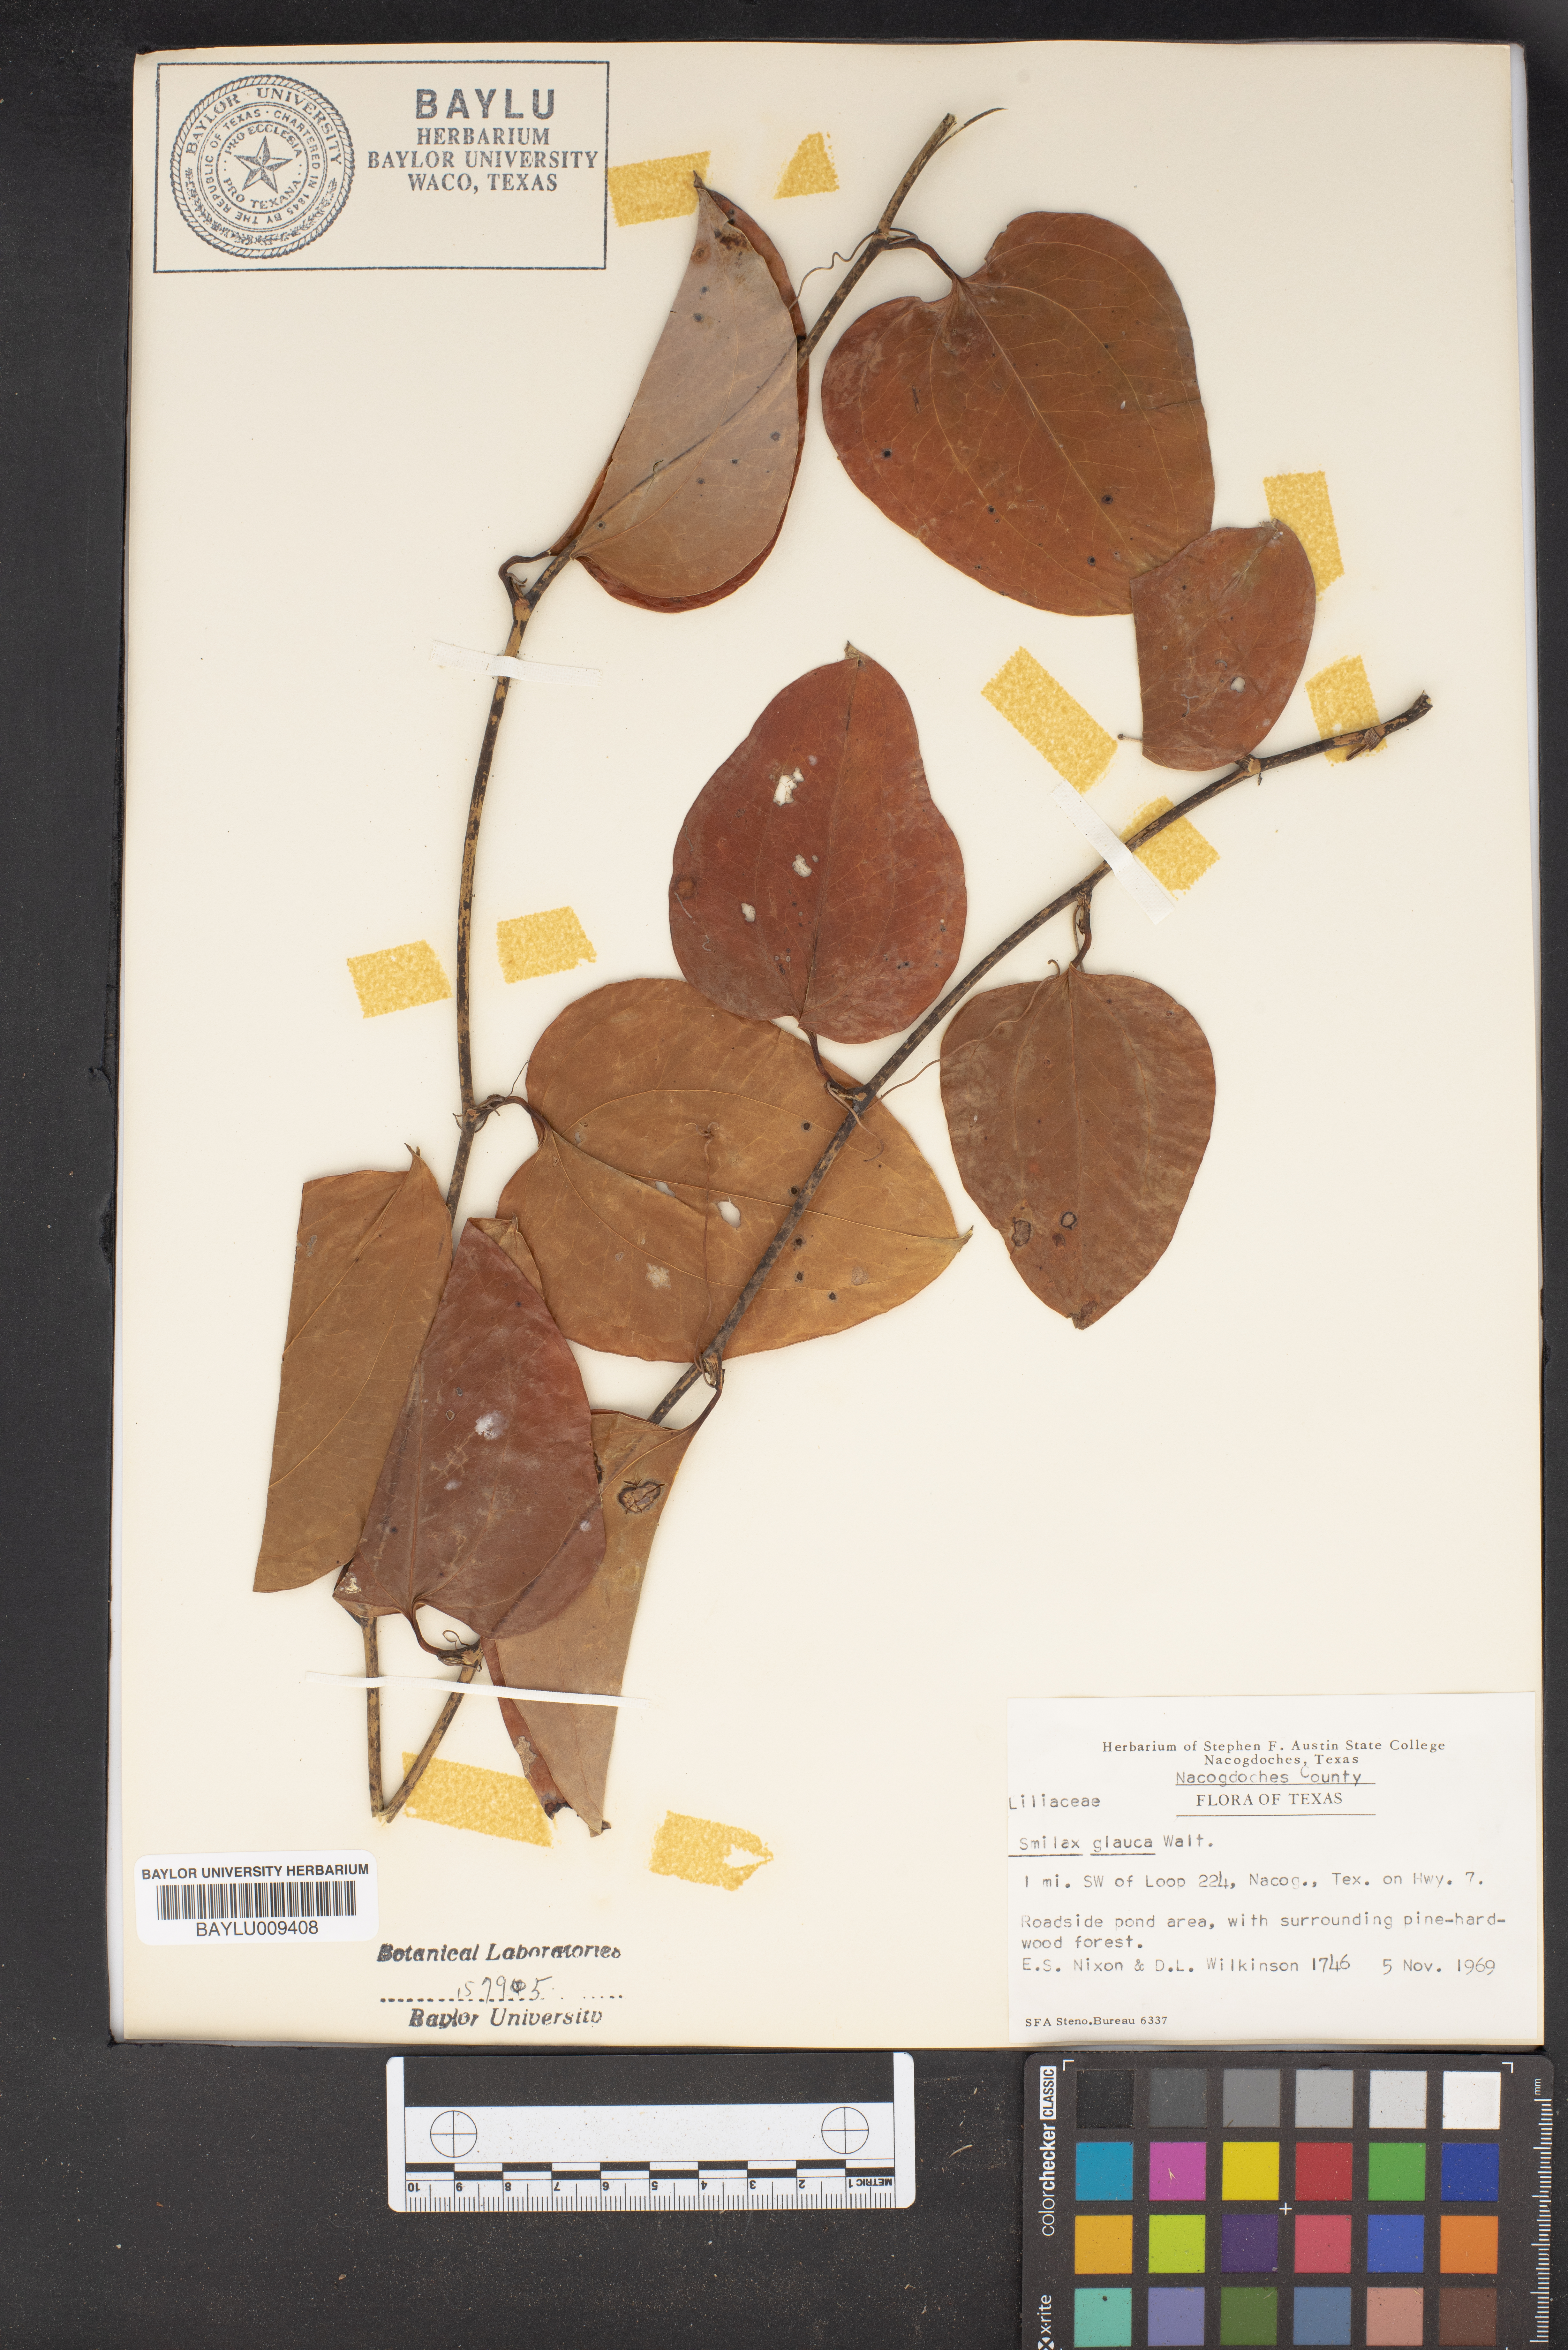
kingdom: Plantae
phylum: Tracheophyta
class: Liliopsida
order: Liliales
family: Smilacaceae
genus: Smilax
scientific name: Smilax glauca
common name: Cat greenbrier
